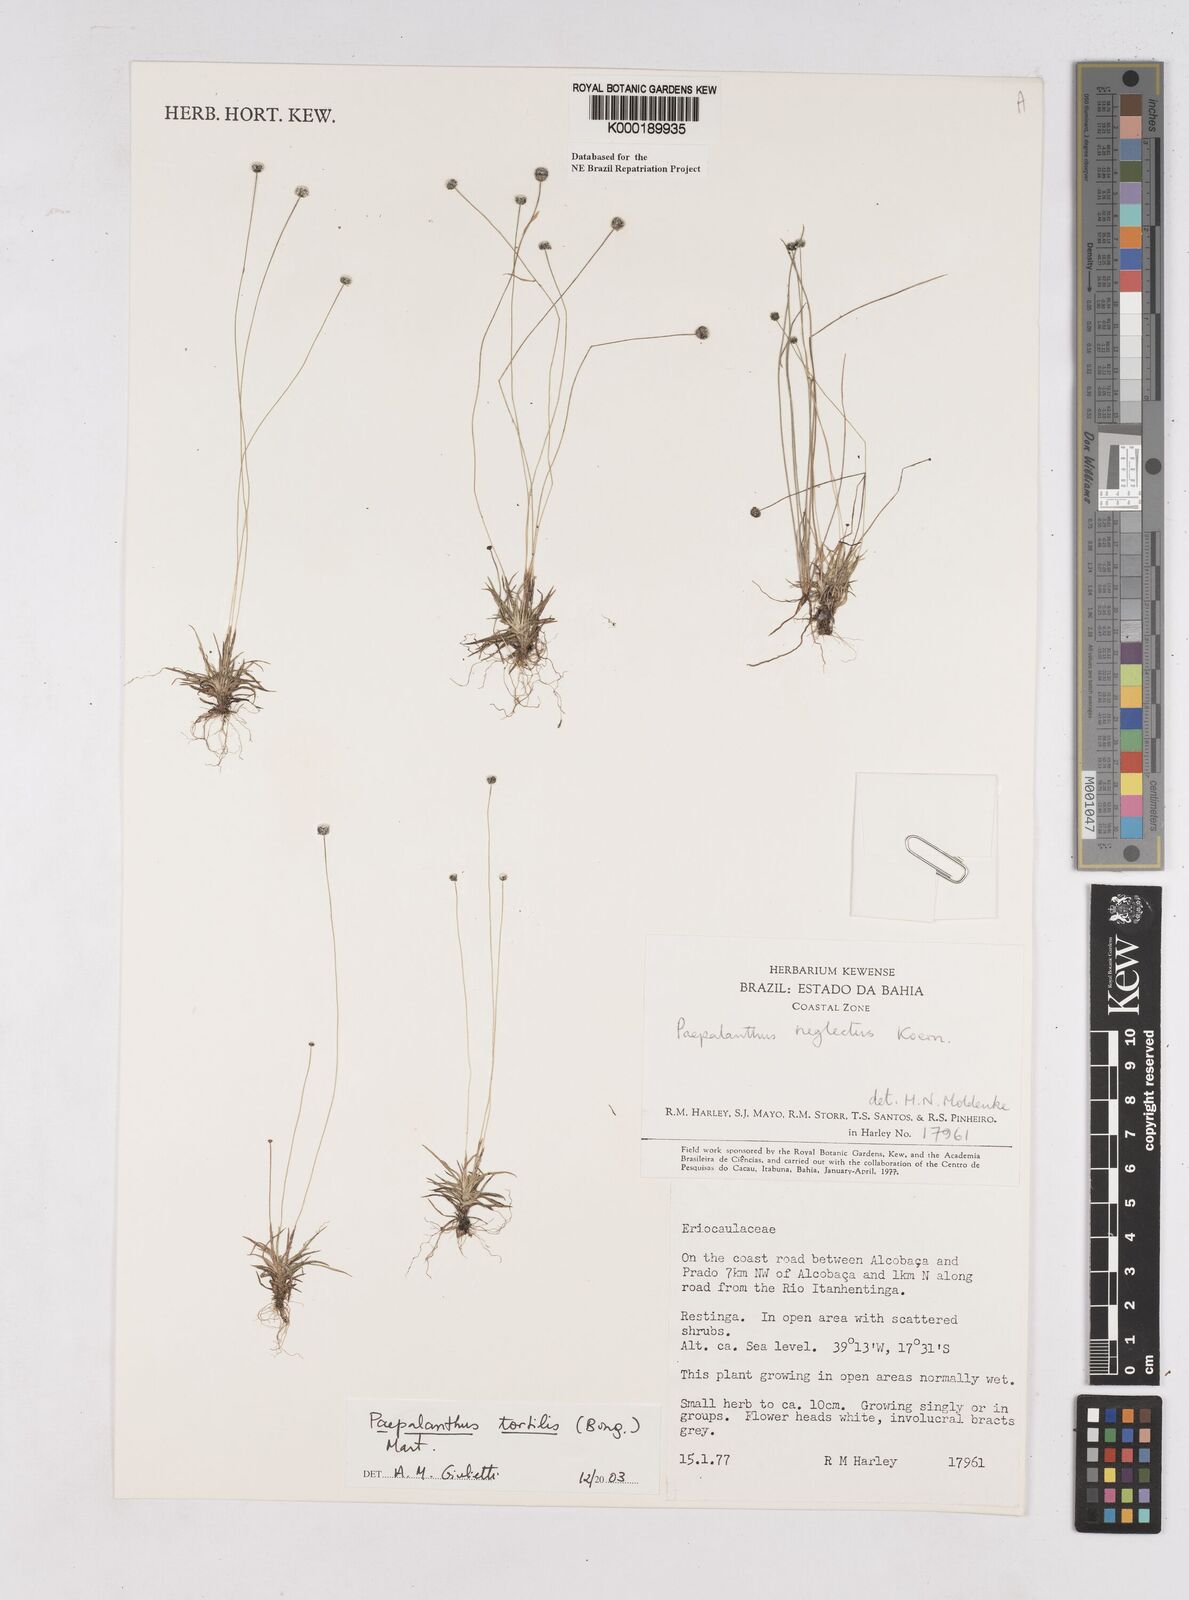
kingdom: Plantae
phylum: Tracheophyta
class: Liliopsida
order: Poales
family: Eriocaulaceae
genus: Paepalanthus
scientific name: Paepalanthus
